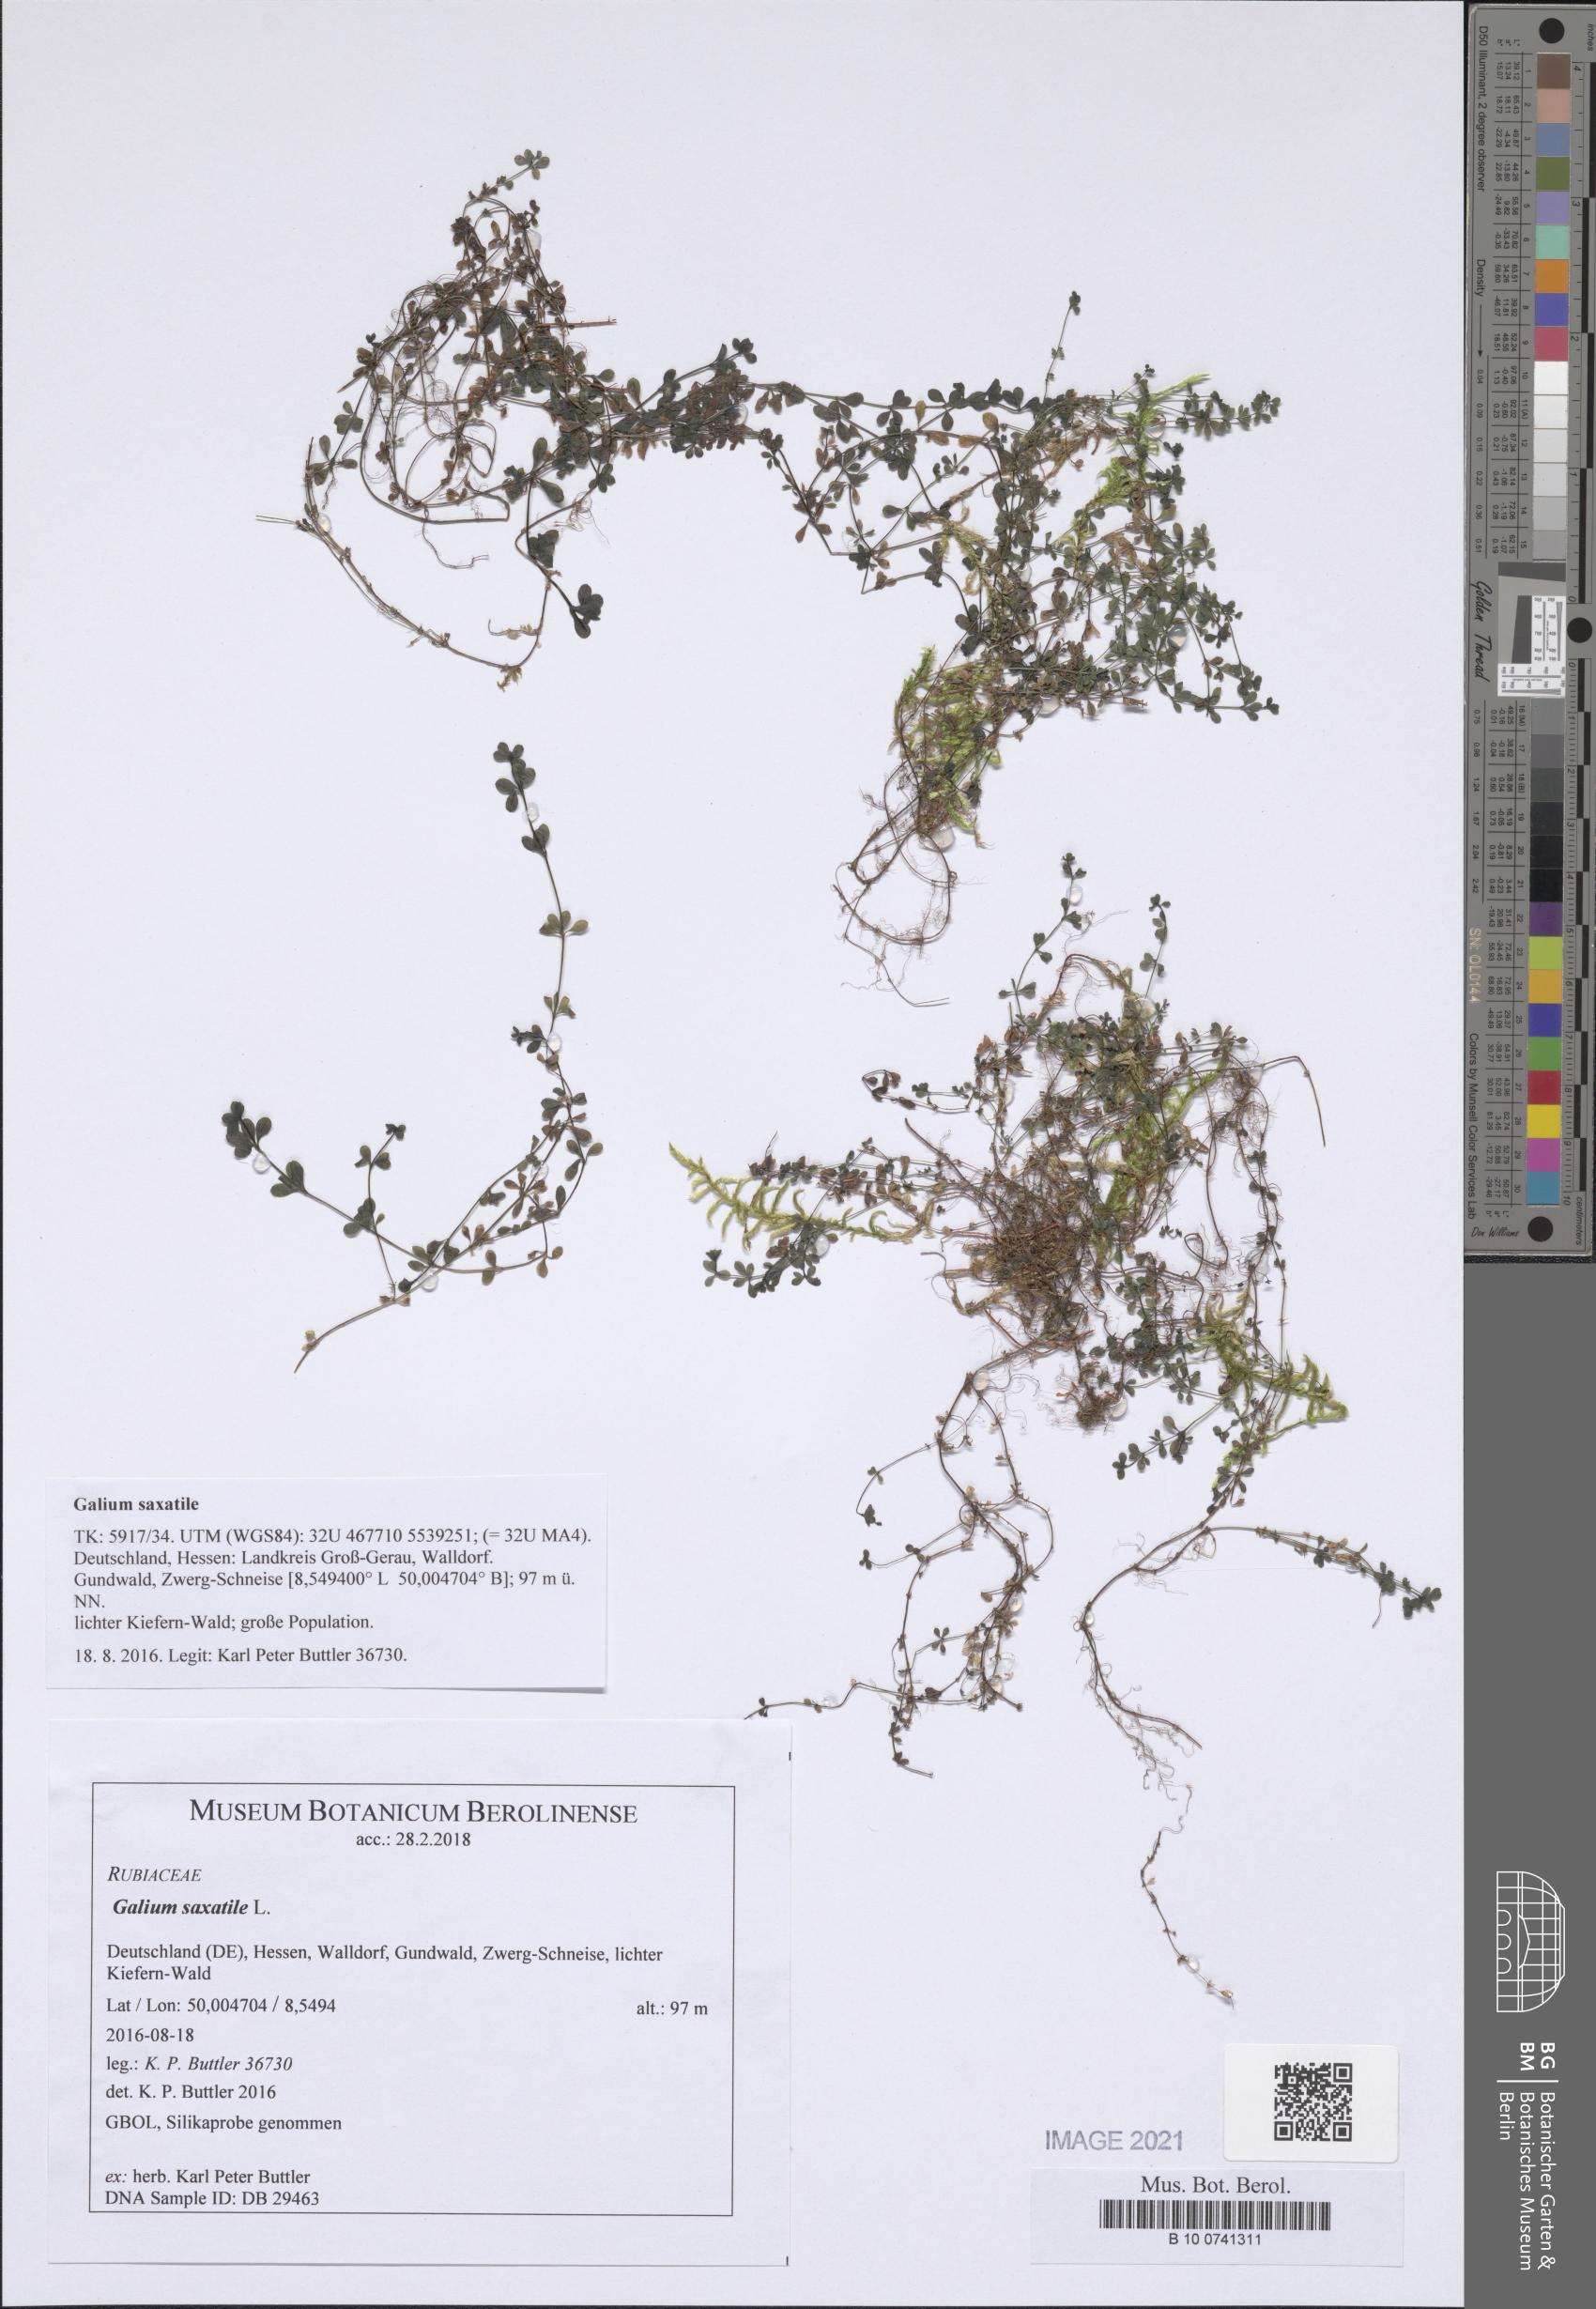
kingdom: Plantae
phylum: Tracheophyta
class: Magnoliopsida
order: Gentianales
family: Rubiaceae
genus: Galium
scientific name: Galium saxatile
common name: Heath bedstraw
